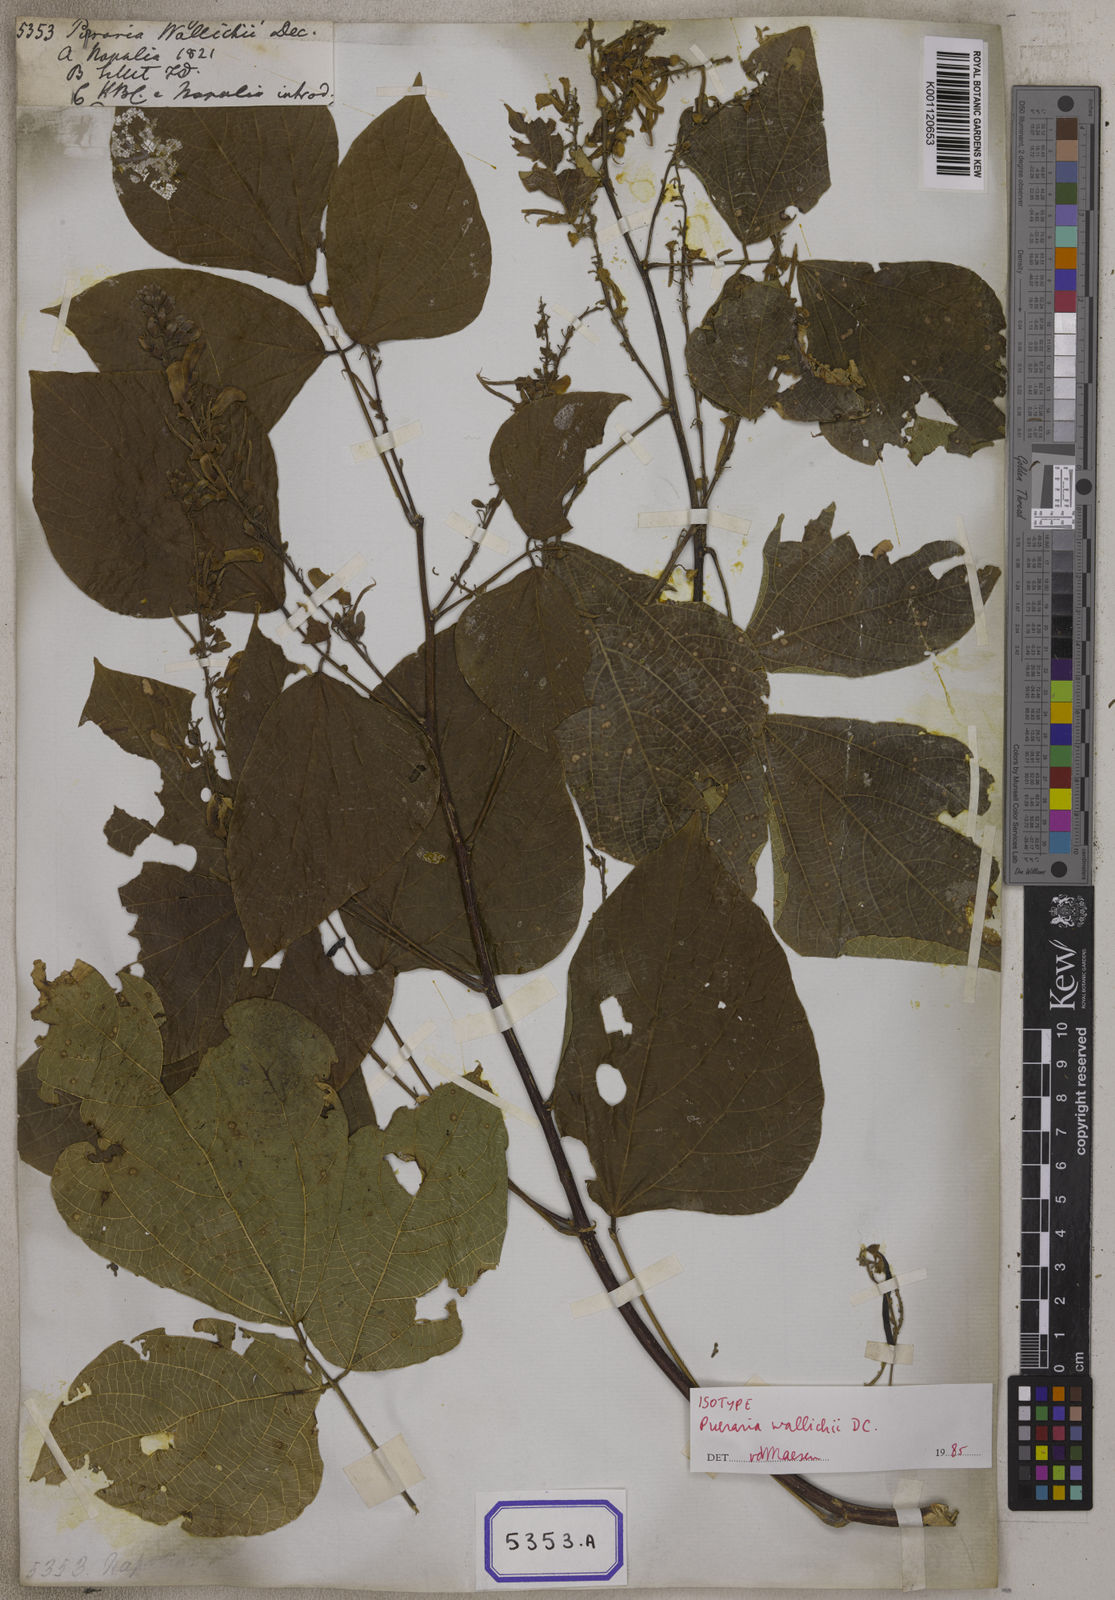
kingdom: Plantae
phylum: Tracheophyta
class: Magnoliopsida
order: Fabales
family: Fabaceae
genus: Haymondia
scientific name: Haymondia wallichii
